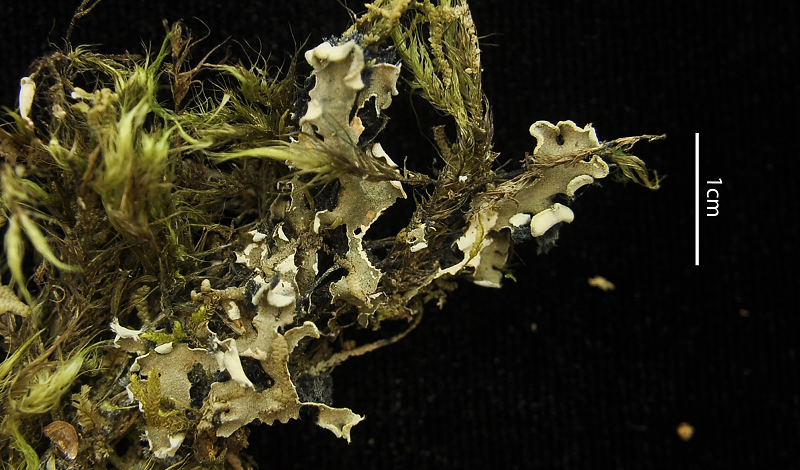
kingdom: Fungi
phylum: Ascomycota
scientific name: Ascomycota
